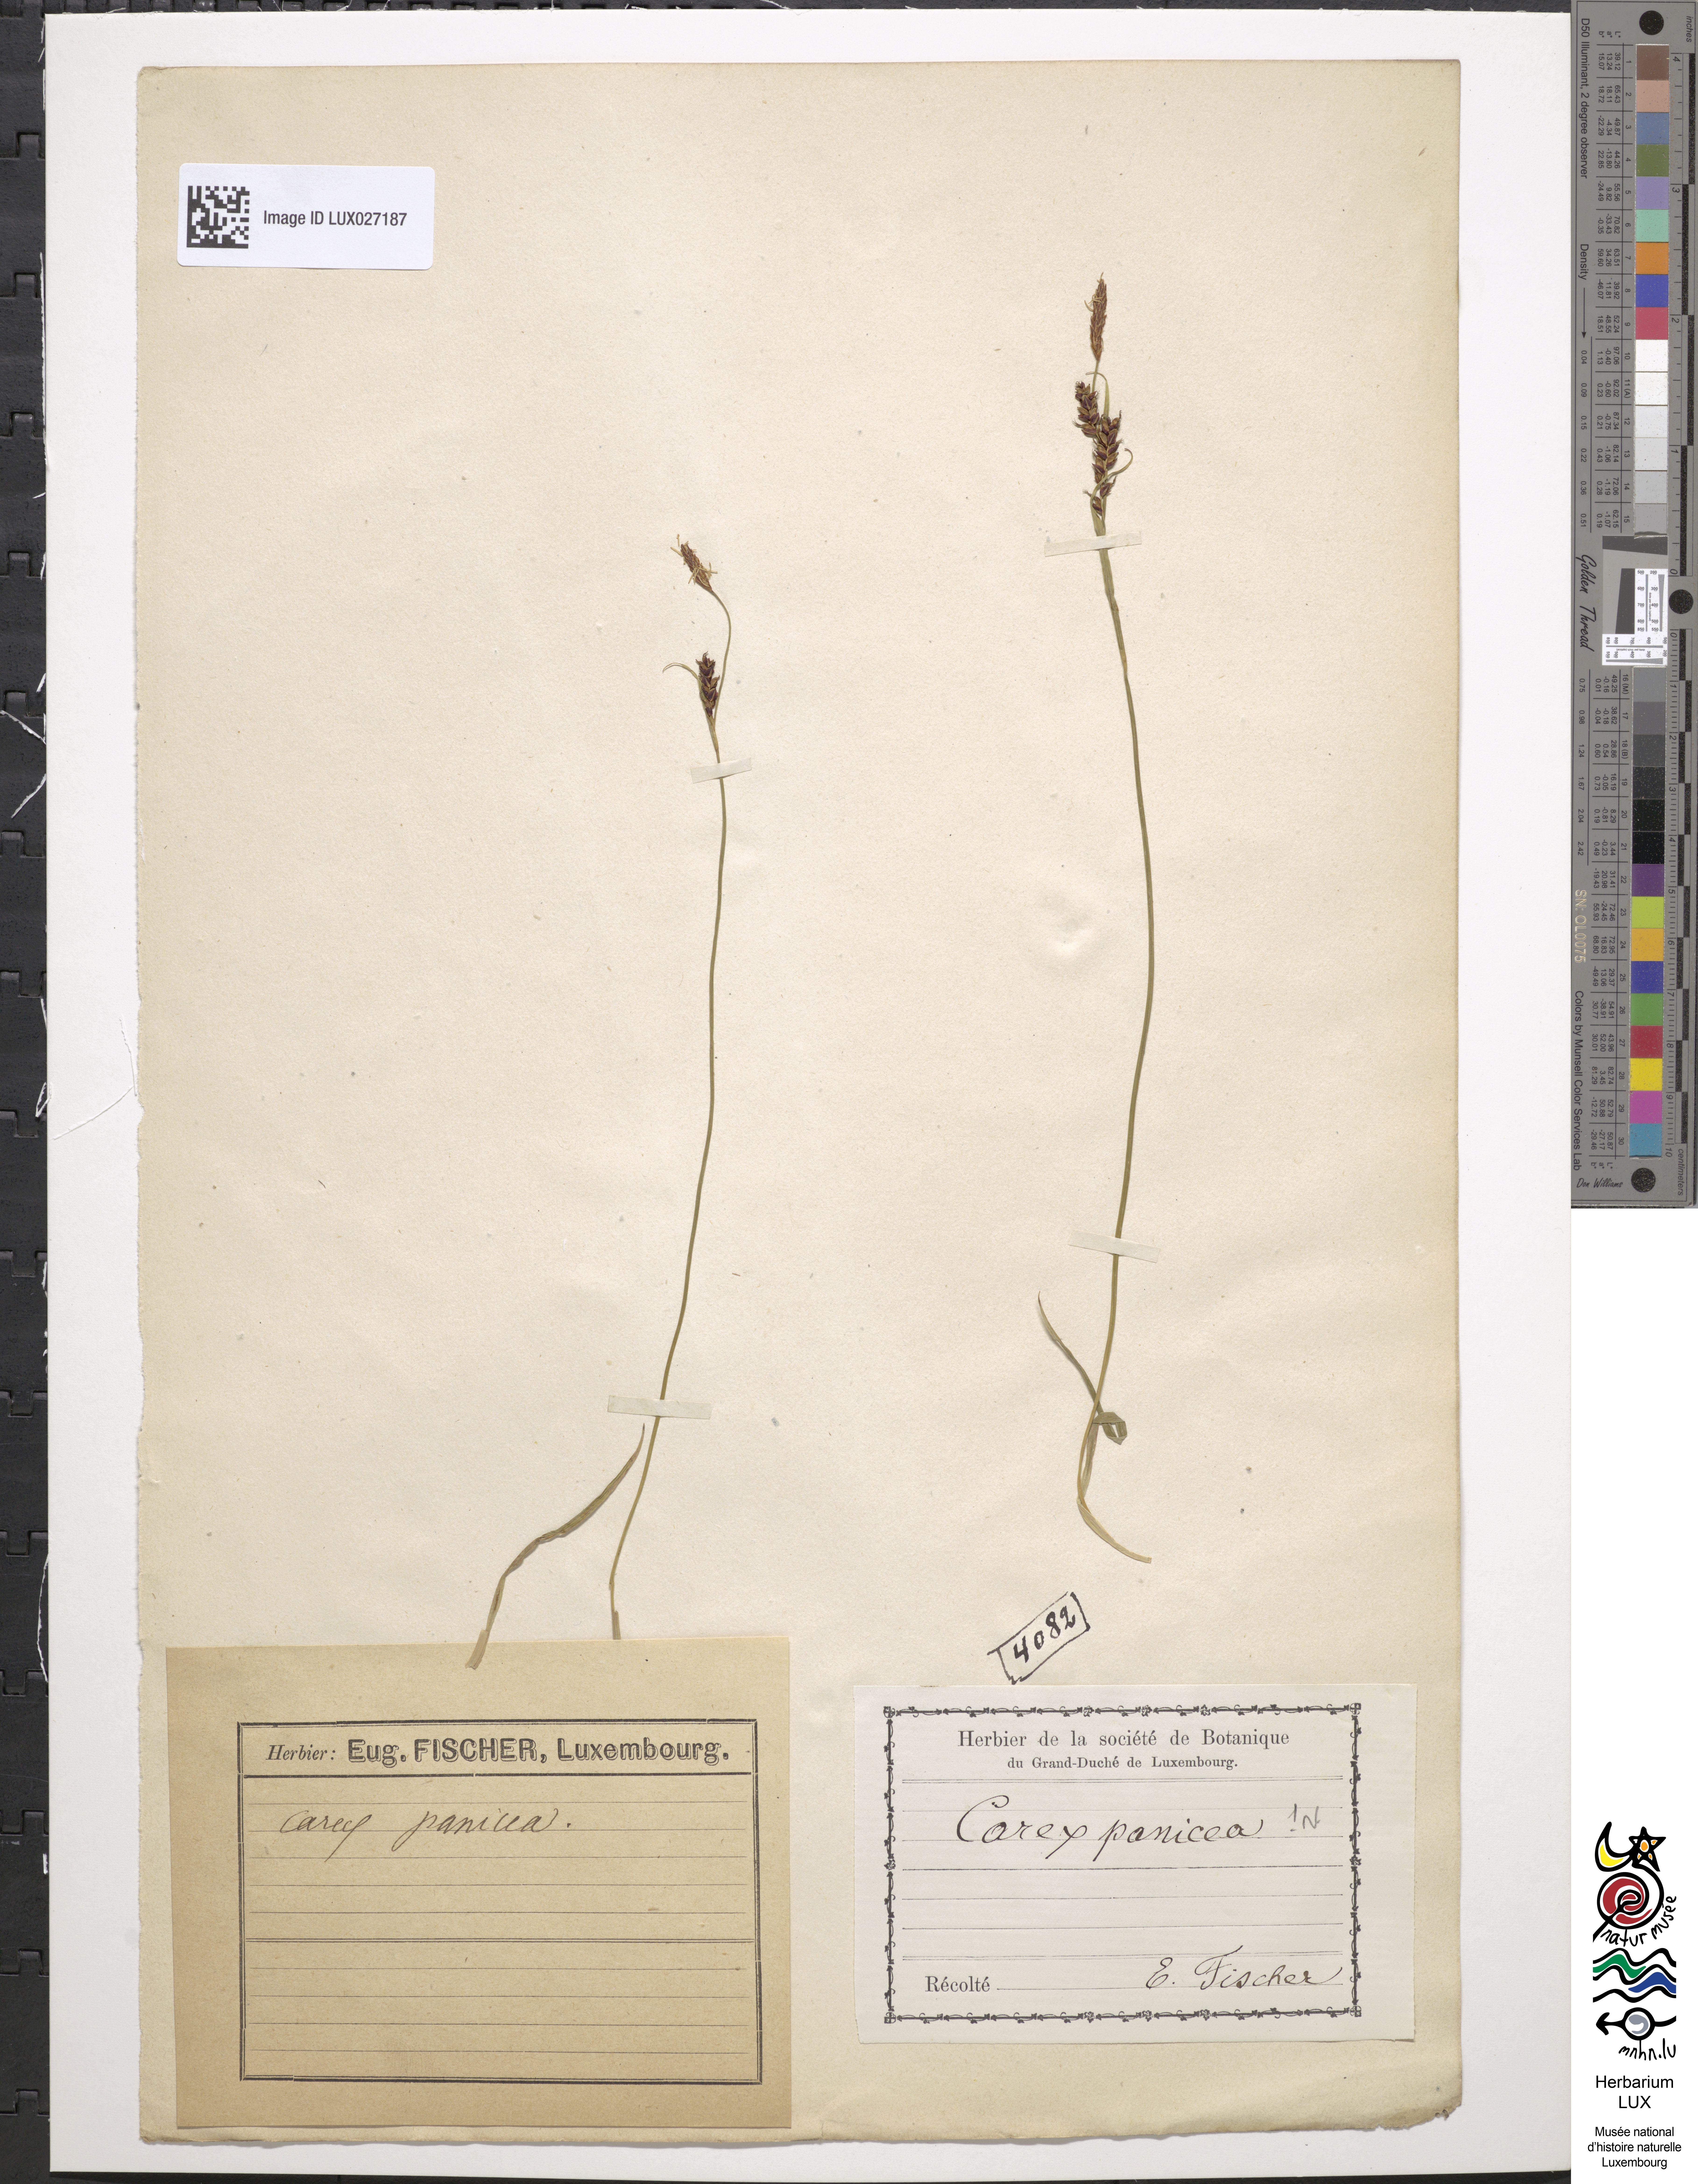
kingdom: Plantae
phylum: Tracheophyta
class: Liliopsida
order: Poales
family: Cyperaceae
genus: Carex
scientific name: Carex panicea
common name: Carnation sedge
